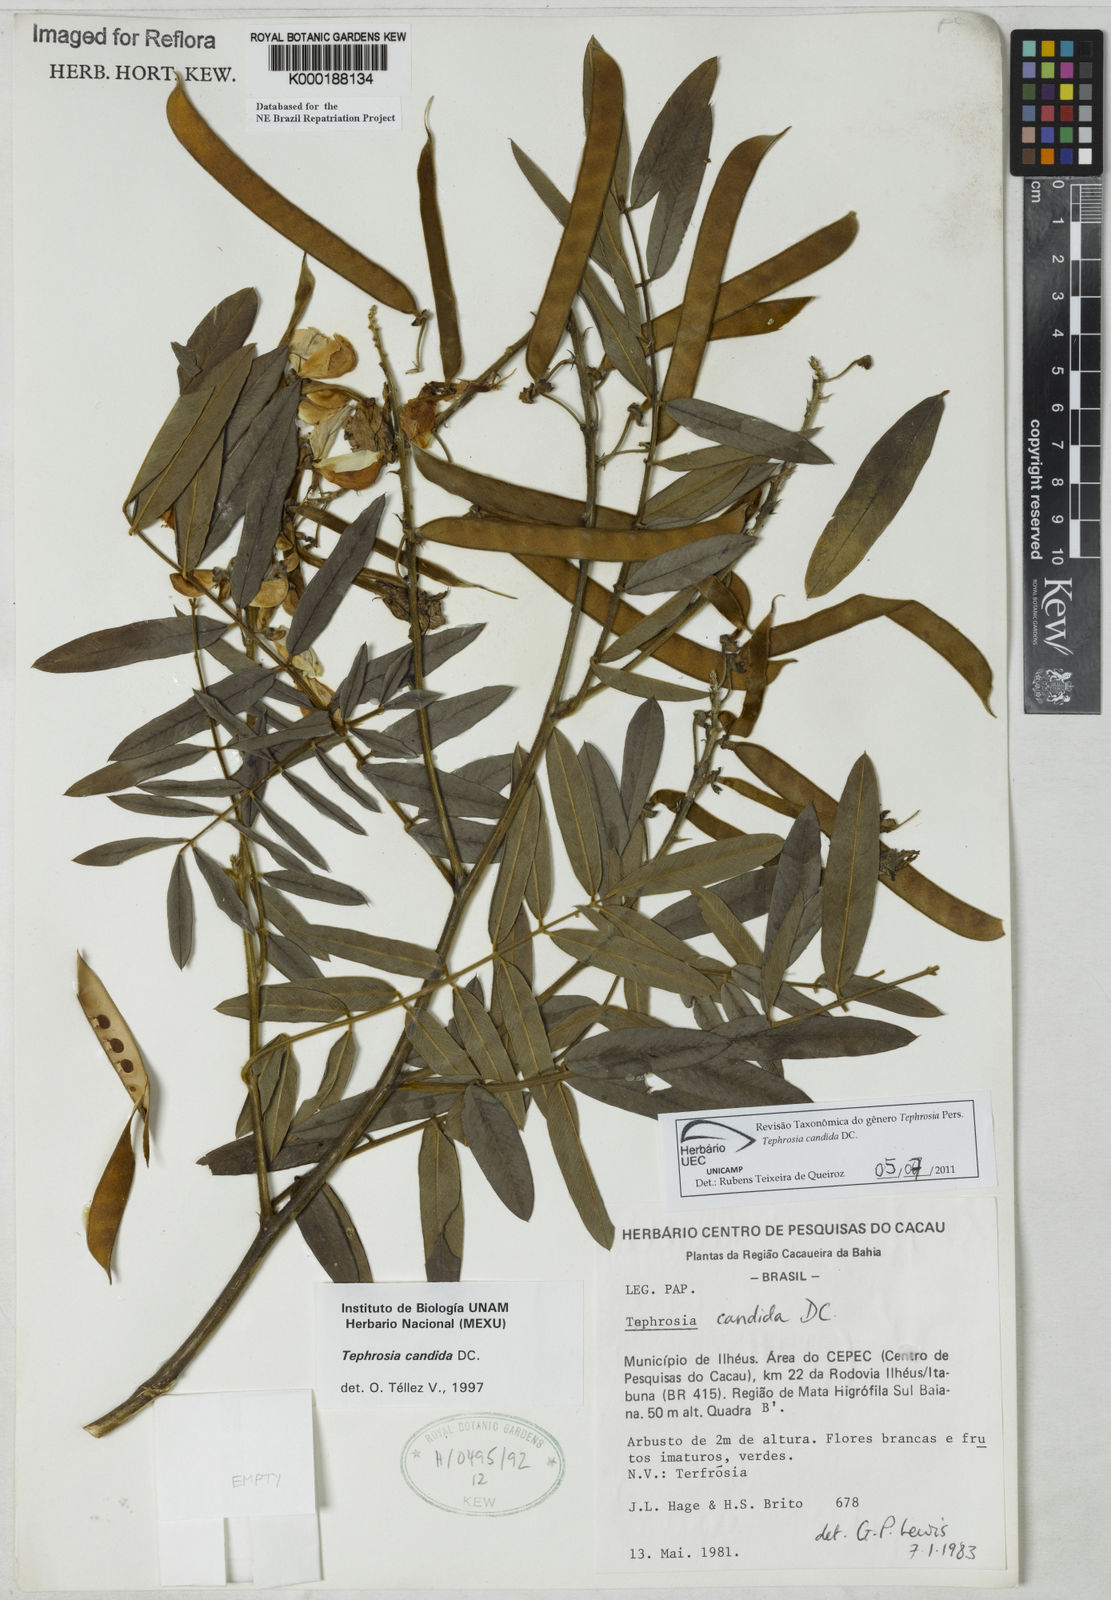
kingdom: Plantae
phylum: Tracheophyta
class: Magnoliopsida
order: Fabales
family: Fabaceae
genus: Tephrosia
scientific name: Tephrosia candida
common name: White tephrosia
